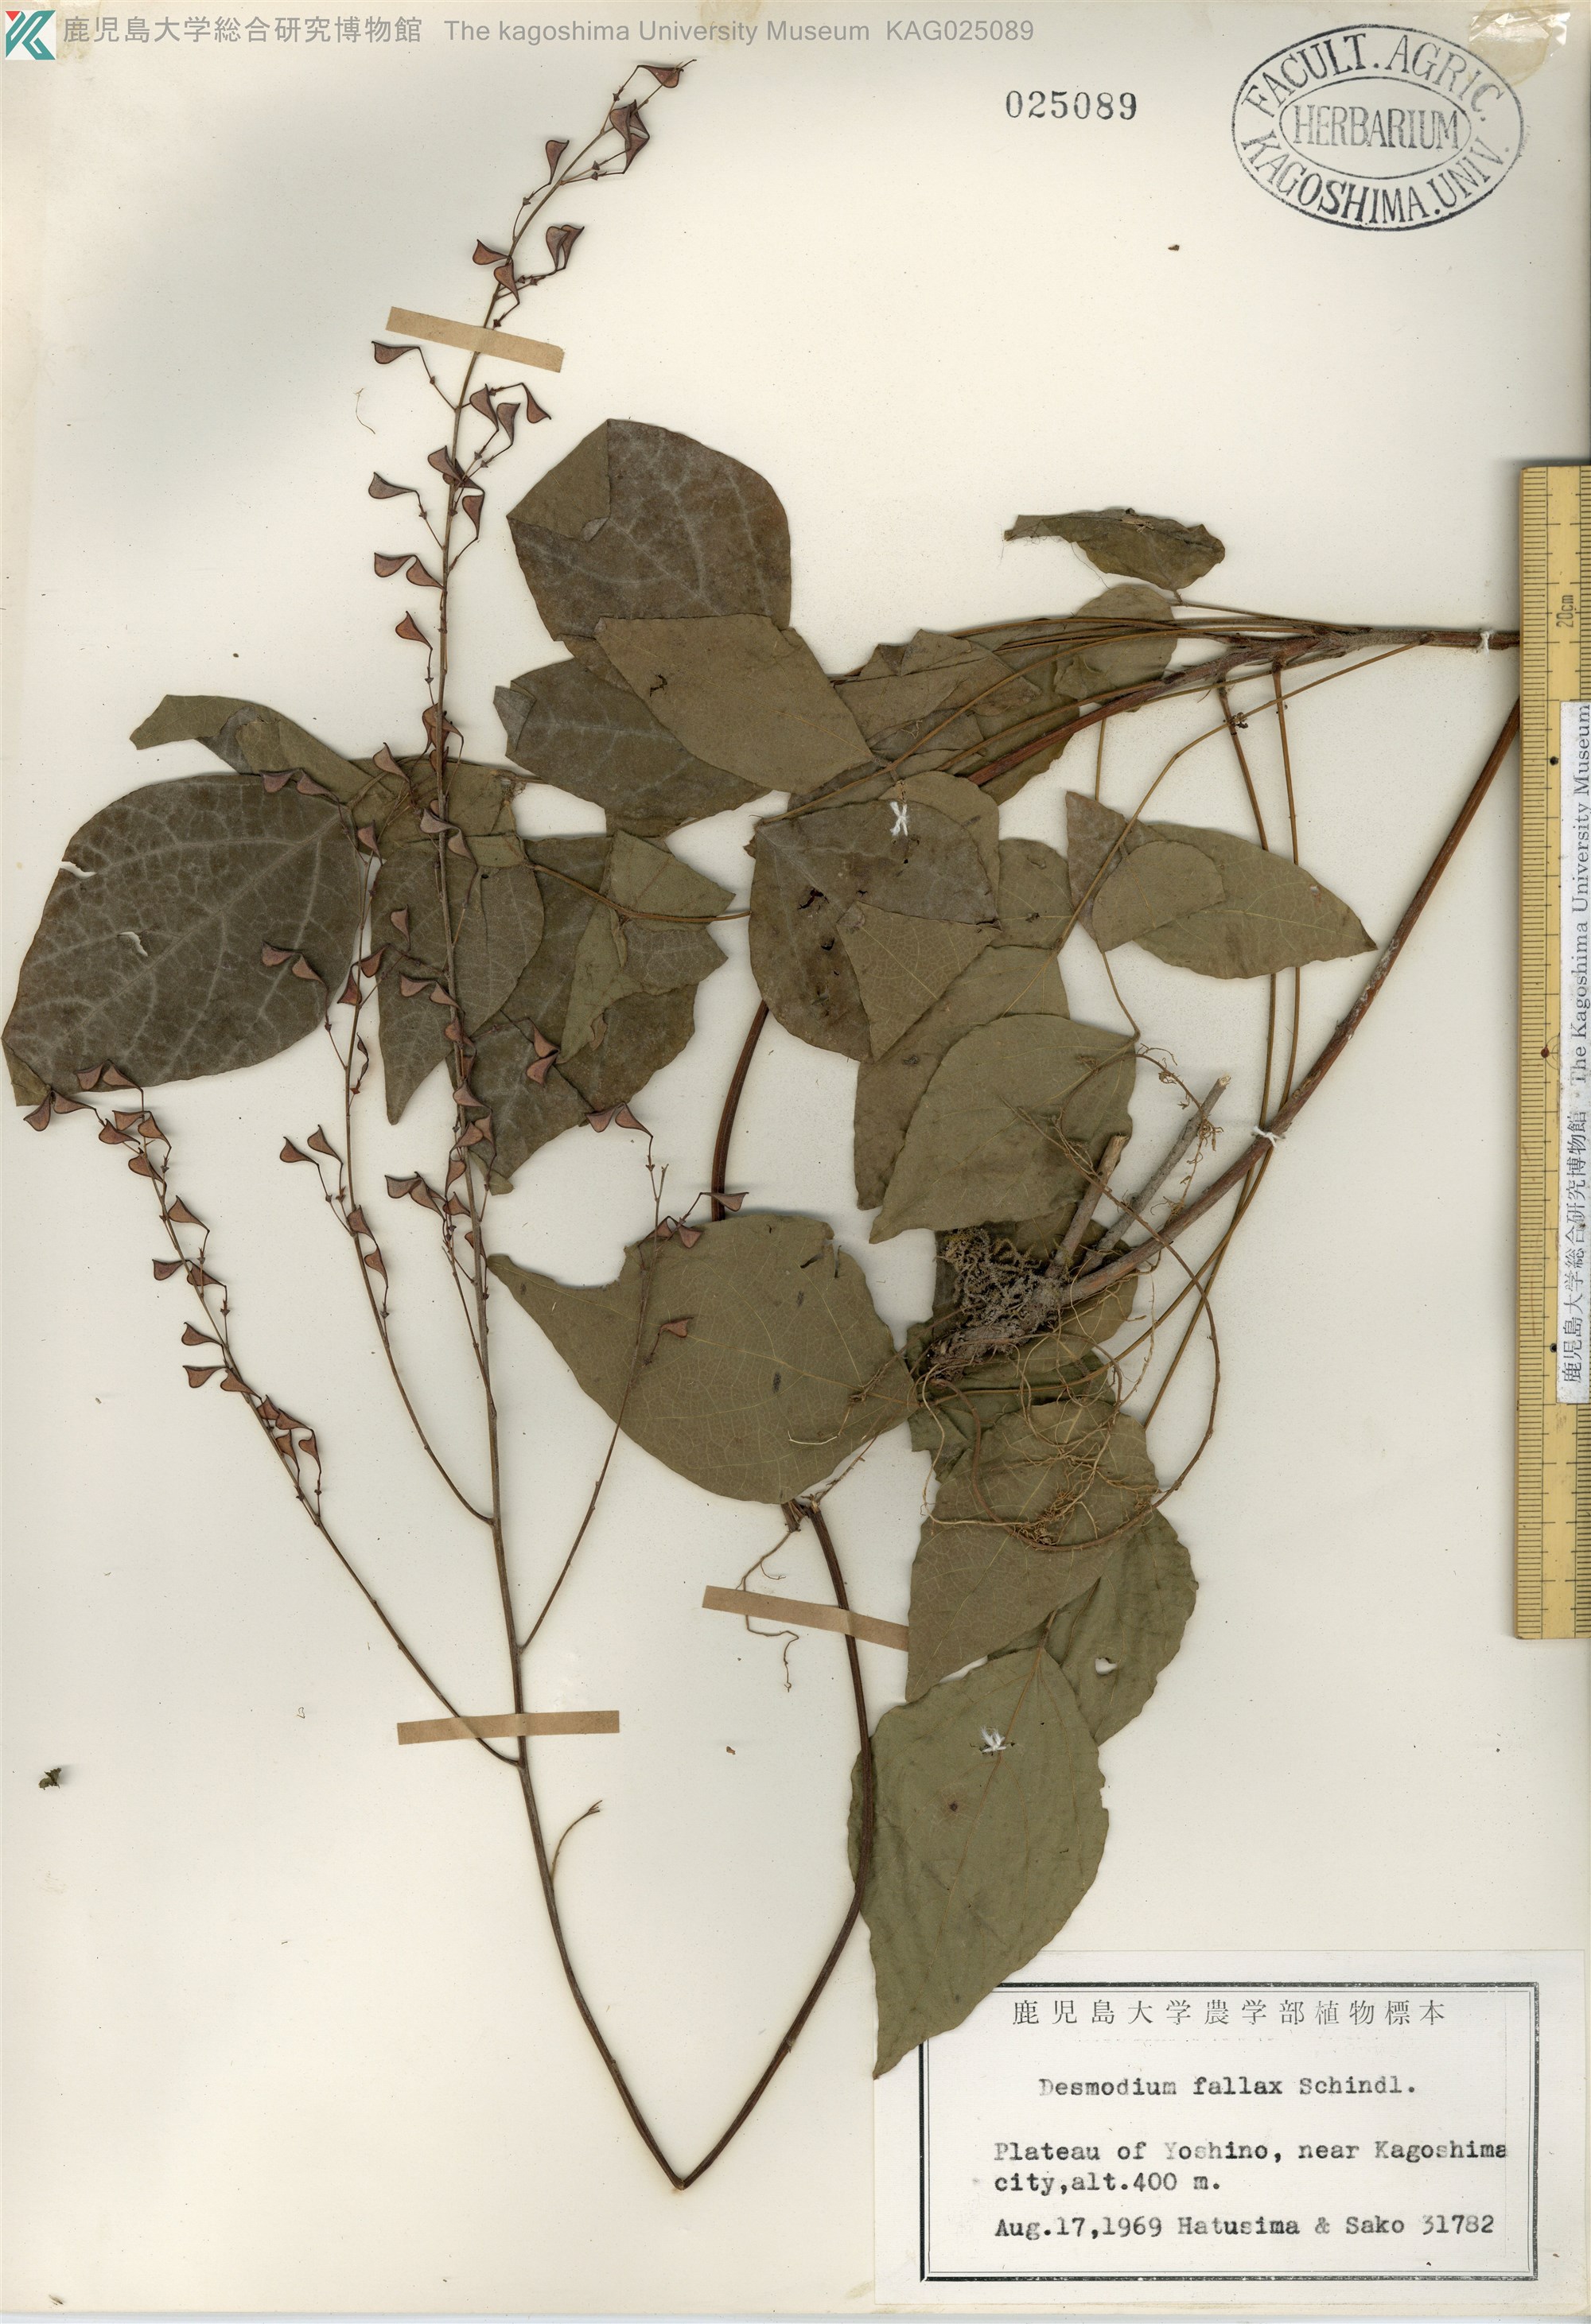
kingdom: Plantae
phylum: Tracheophyta
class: Magnoliopsida
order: Fabales
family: Fabaceae
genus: Hylodesmum
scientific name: Hylodesmum podocarpum
